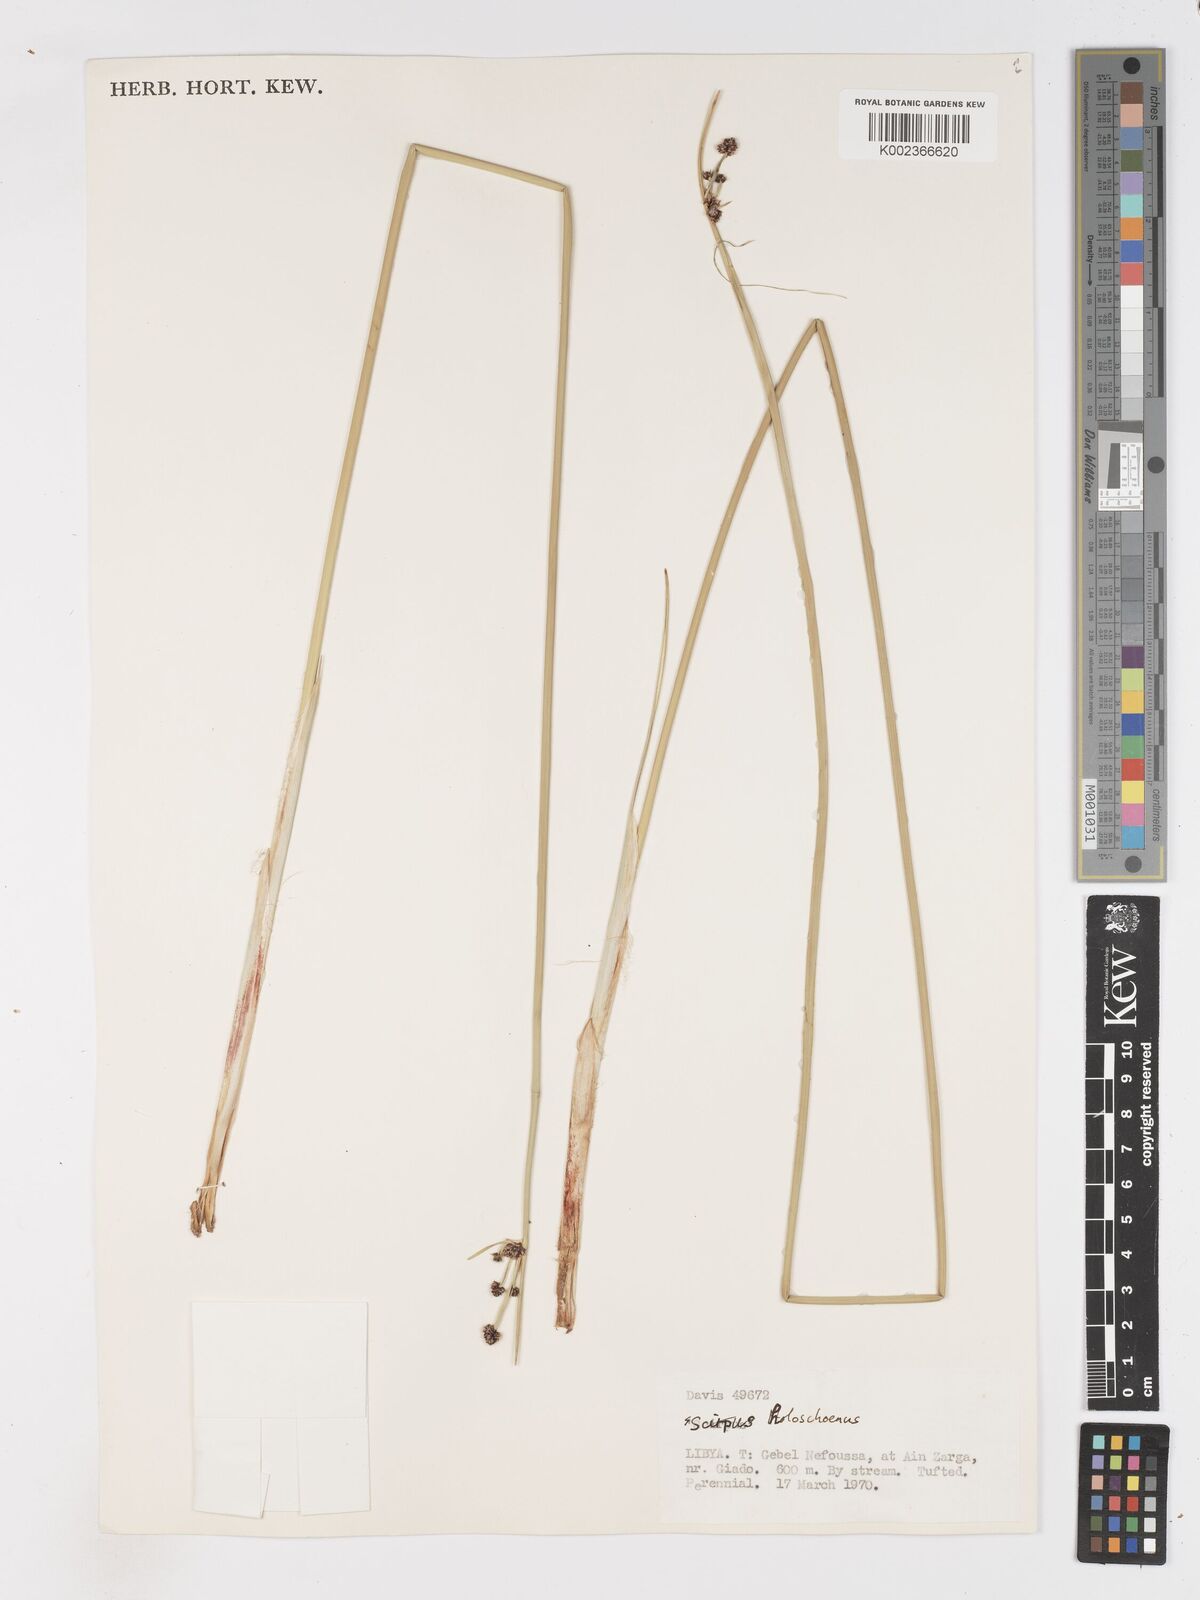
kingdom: Plantae
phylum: Tracheophyta
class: Liliopsida
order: Poales
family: Cyperaceae
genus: Scirpoides
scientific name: Scirpoides holoschoenus
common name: Round-headed club-rush
